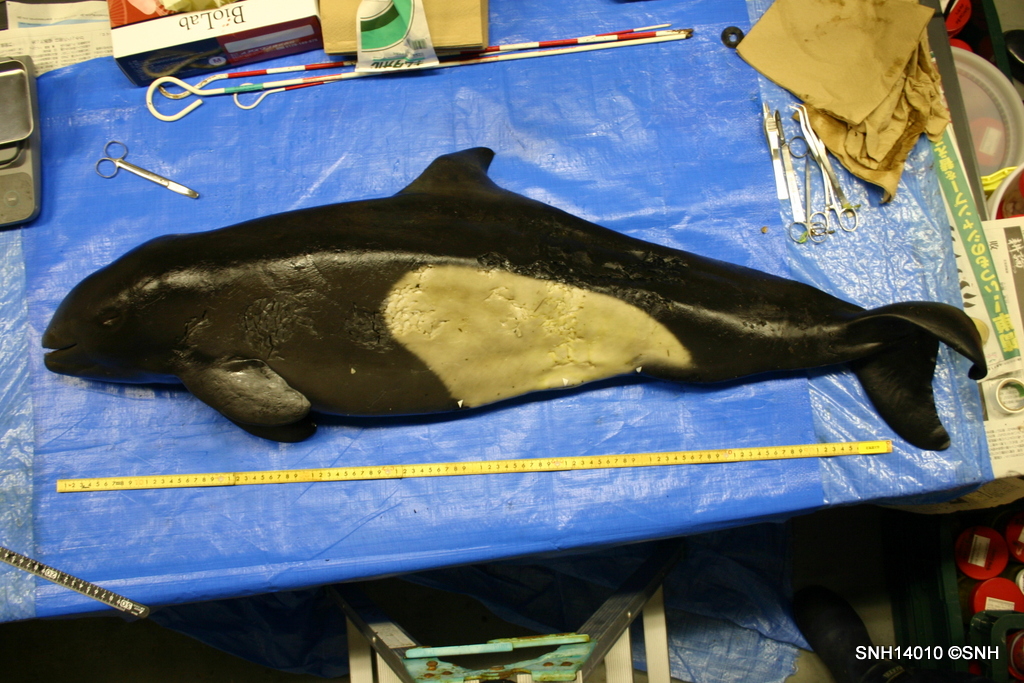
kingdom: Animalia
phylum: Chordata
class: Mammalia
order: Cetacea
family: Phocoenidae
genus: Phocoenoides
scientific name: Phocoenoides dalli
